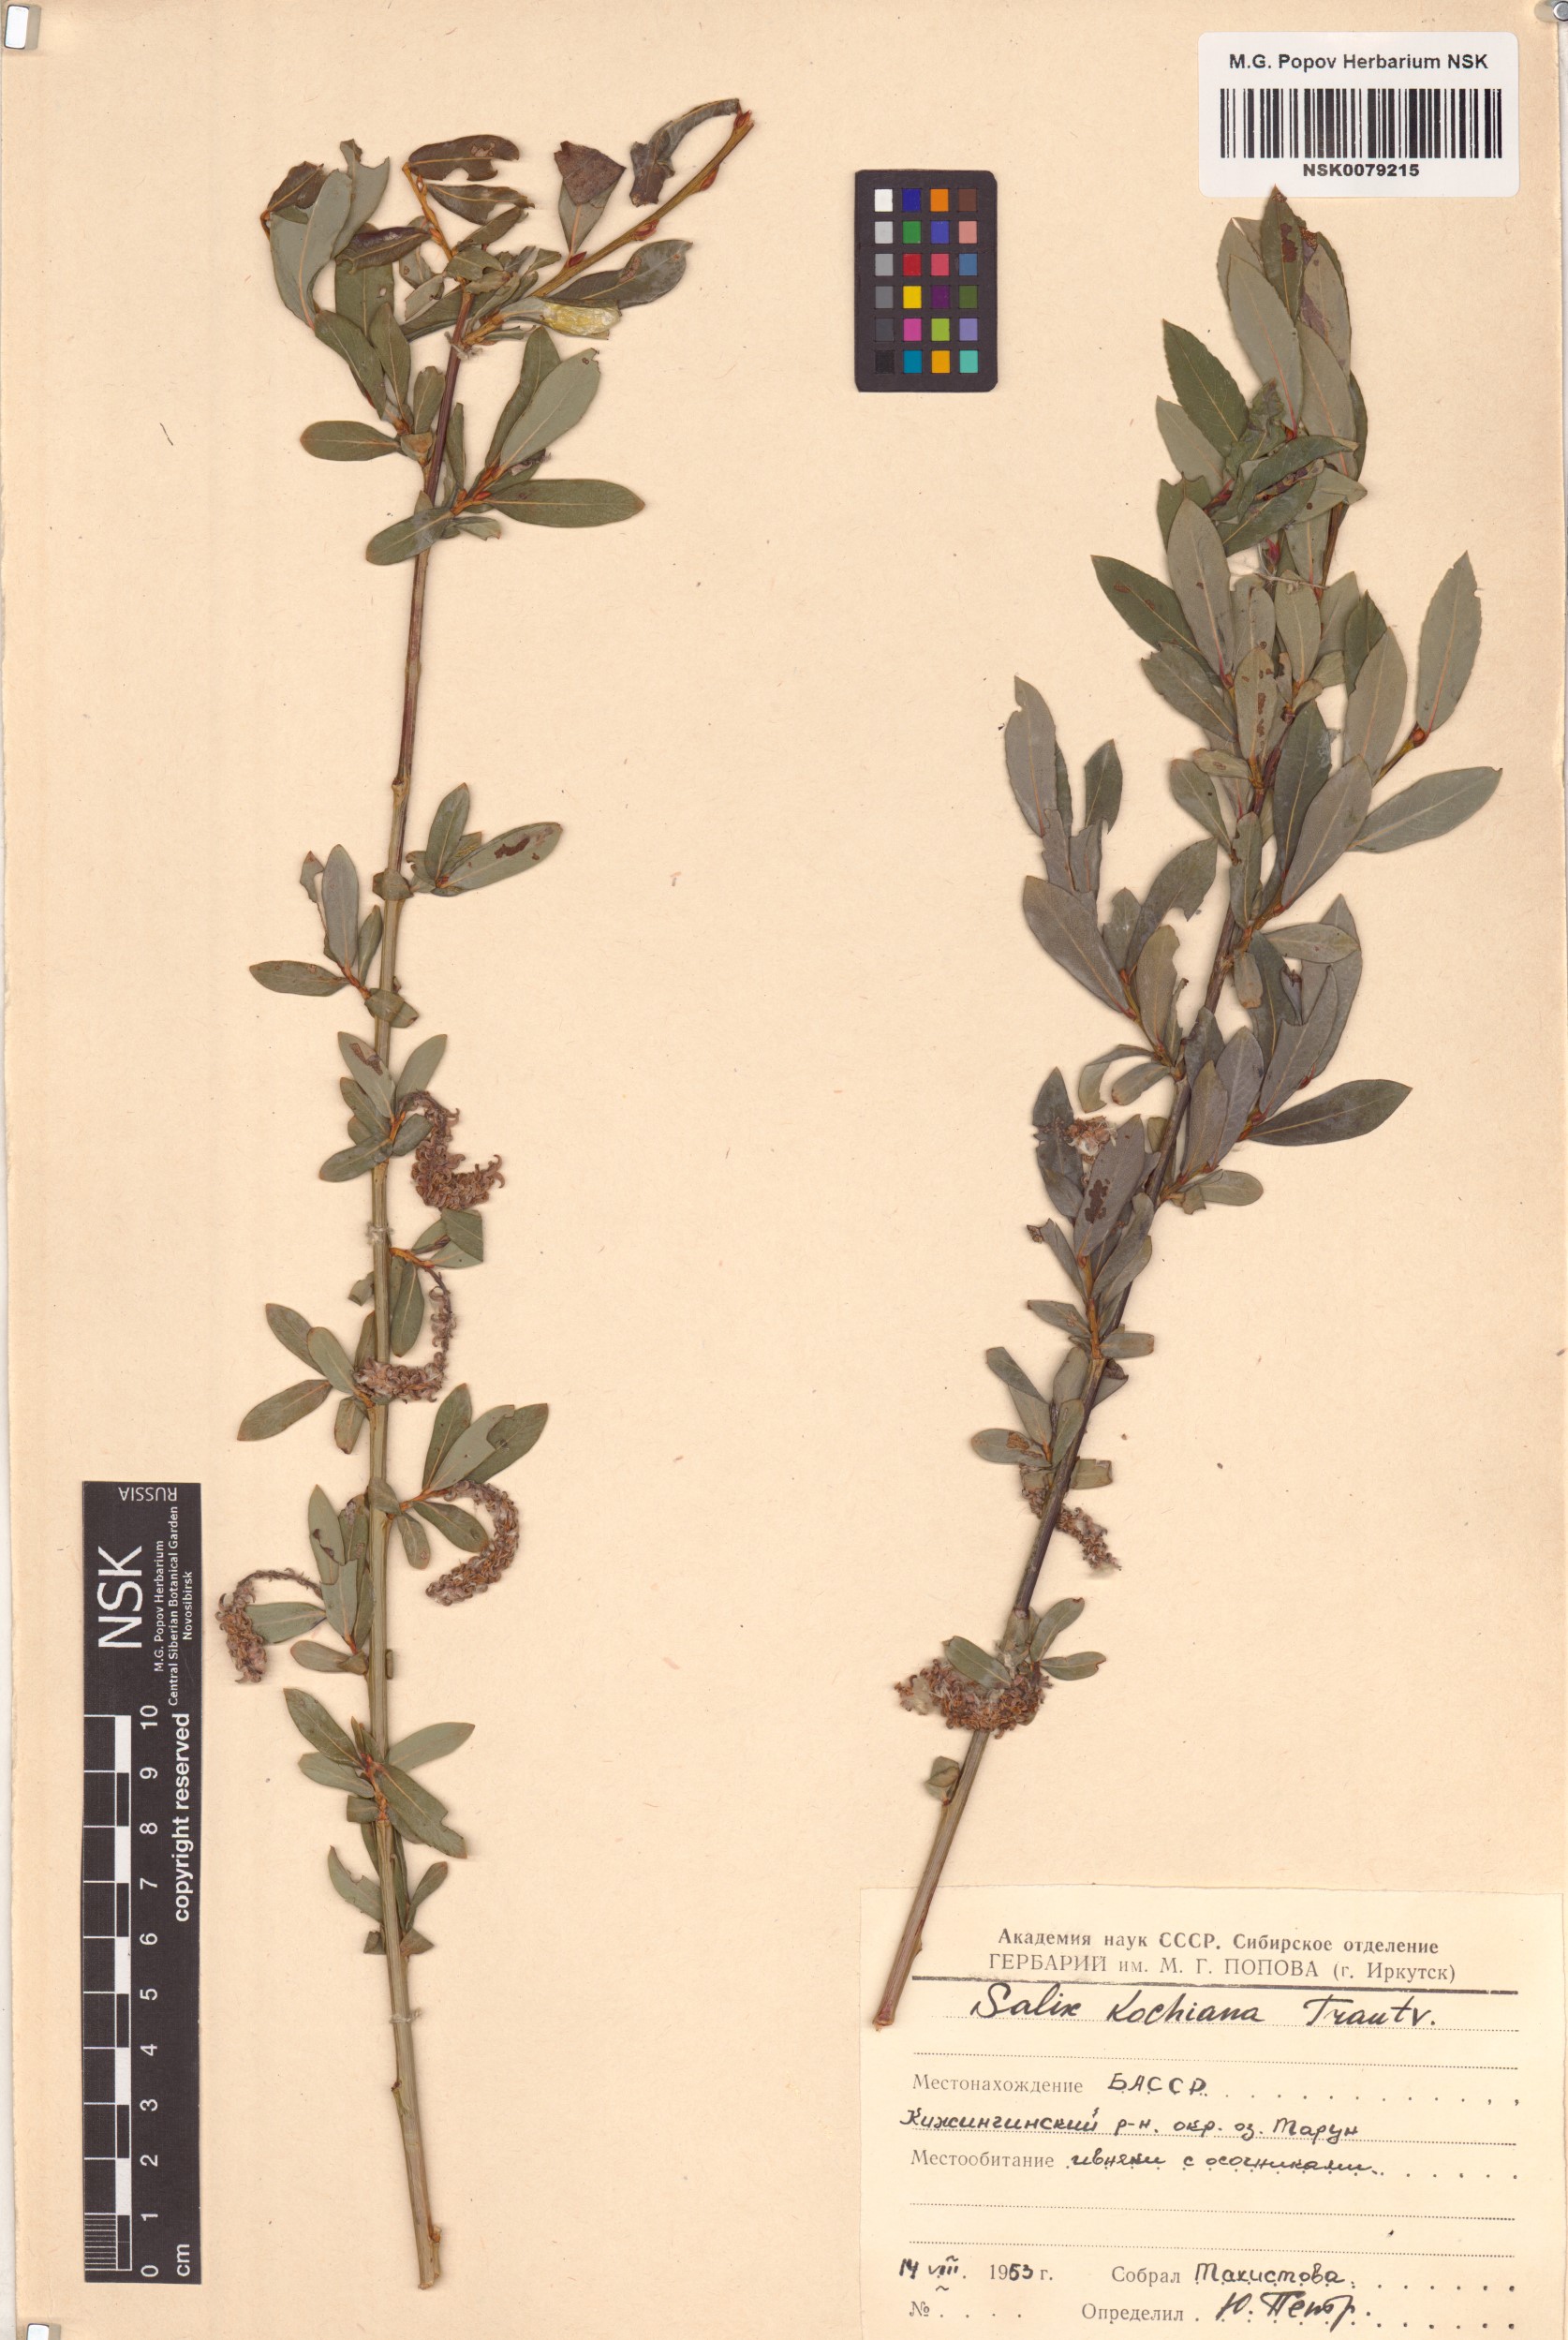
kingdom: Plantae
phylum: Tracheophyta
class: Magnoliopsida
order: Malpighiales
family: Salicaceae
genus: Salix
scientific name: Salix kochiana
